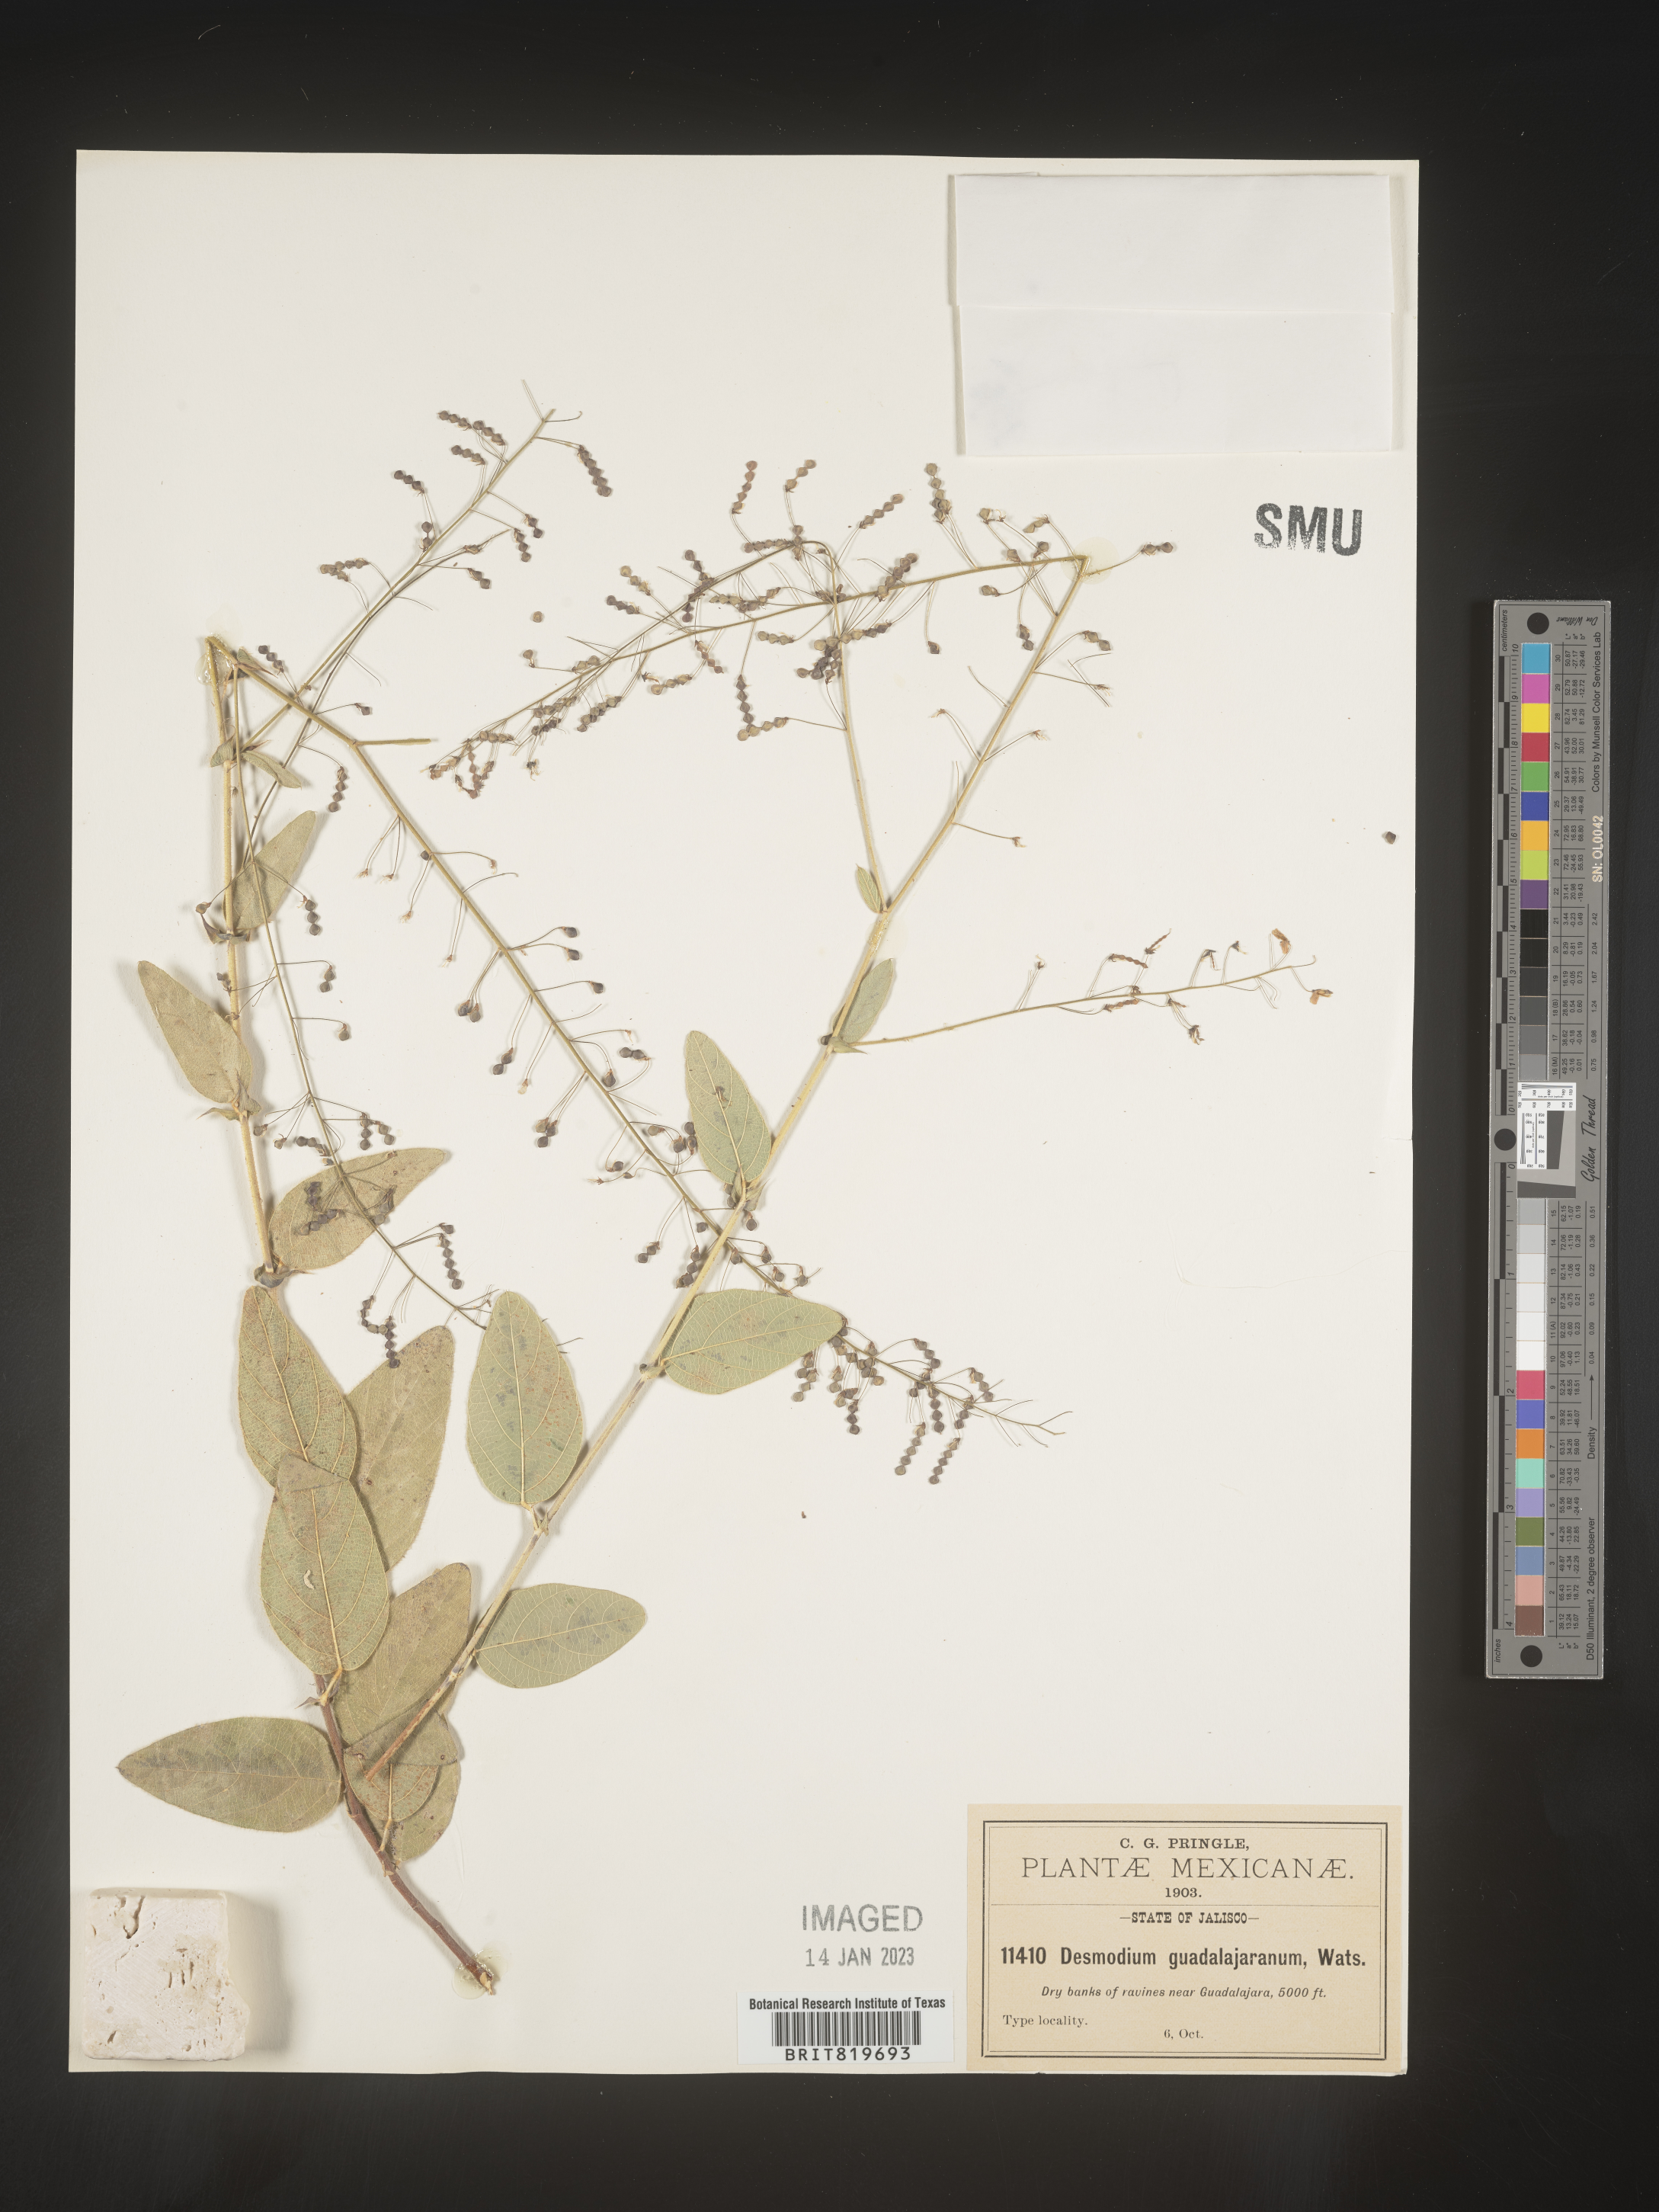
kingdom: Plantae
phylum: Tracheophyta
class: Magnoliopsida
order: Fabales
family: Fabaceae
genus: Desmodium
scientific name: Desmodium
